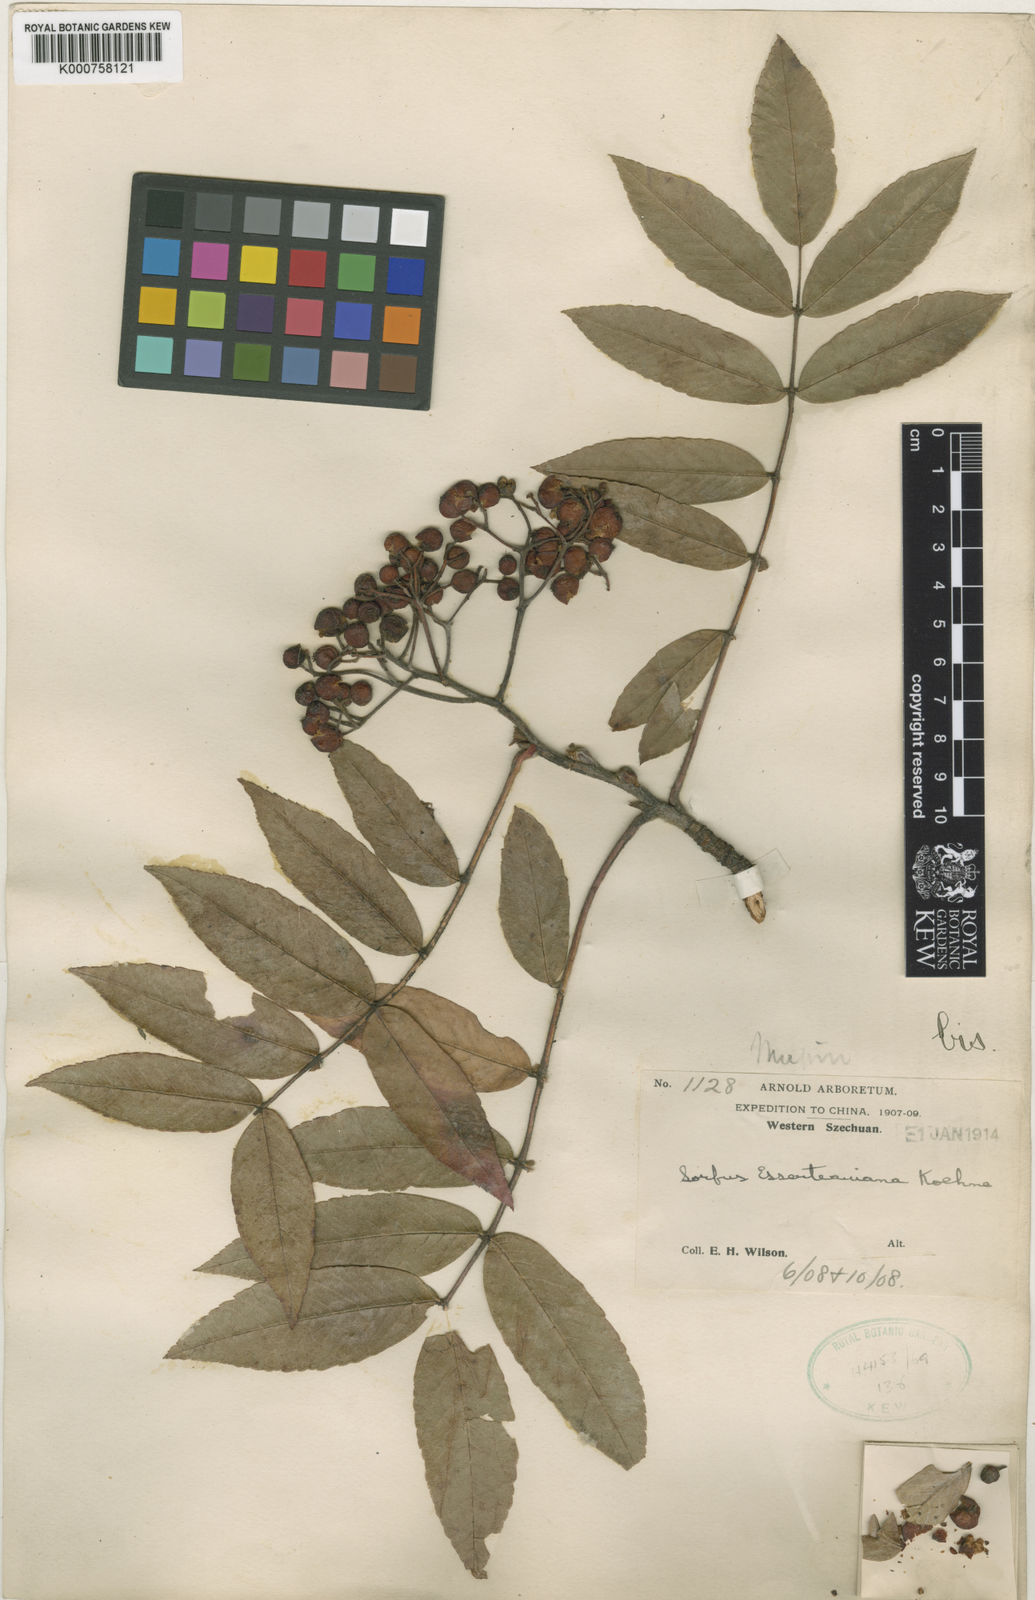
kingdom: Plantae
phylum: Tracheophyta
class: Magnoliopsida
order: Rosales
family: Rosaceae
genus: Sorbus
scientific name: Sorbus esserteauiana
